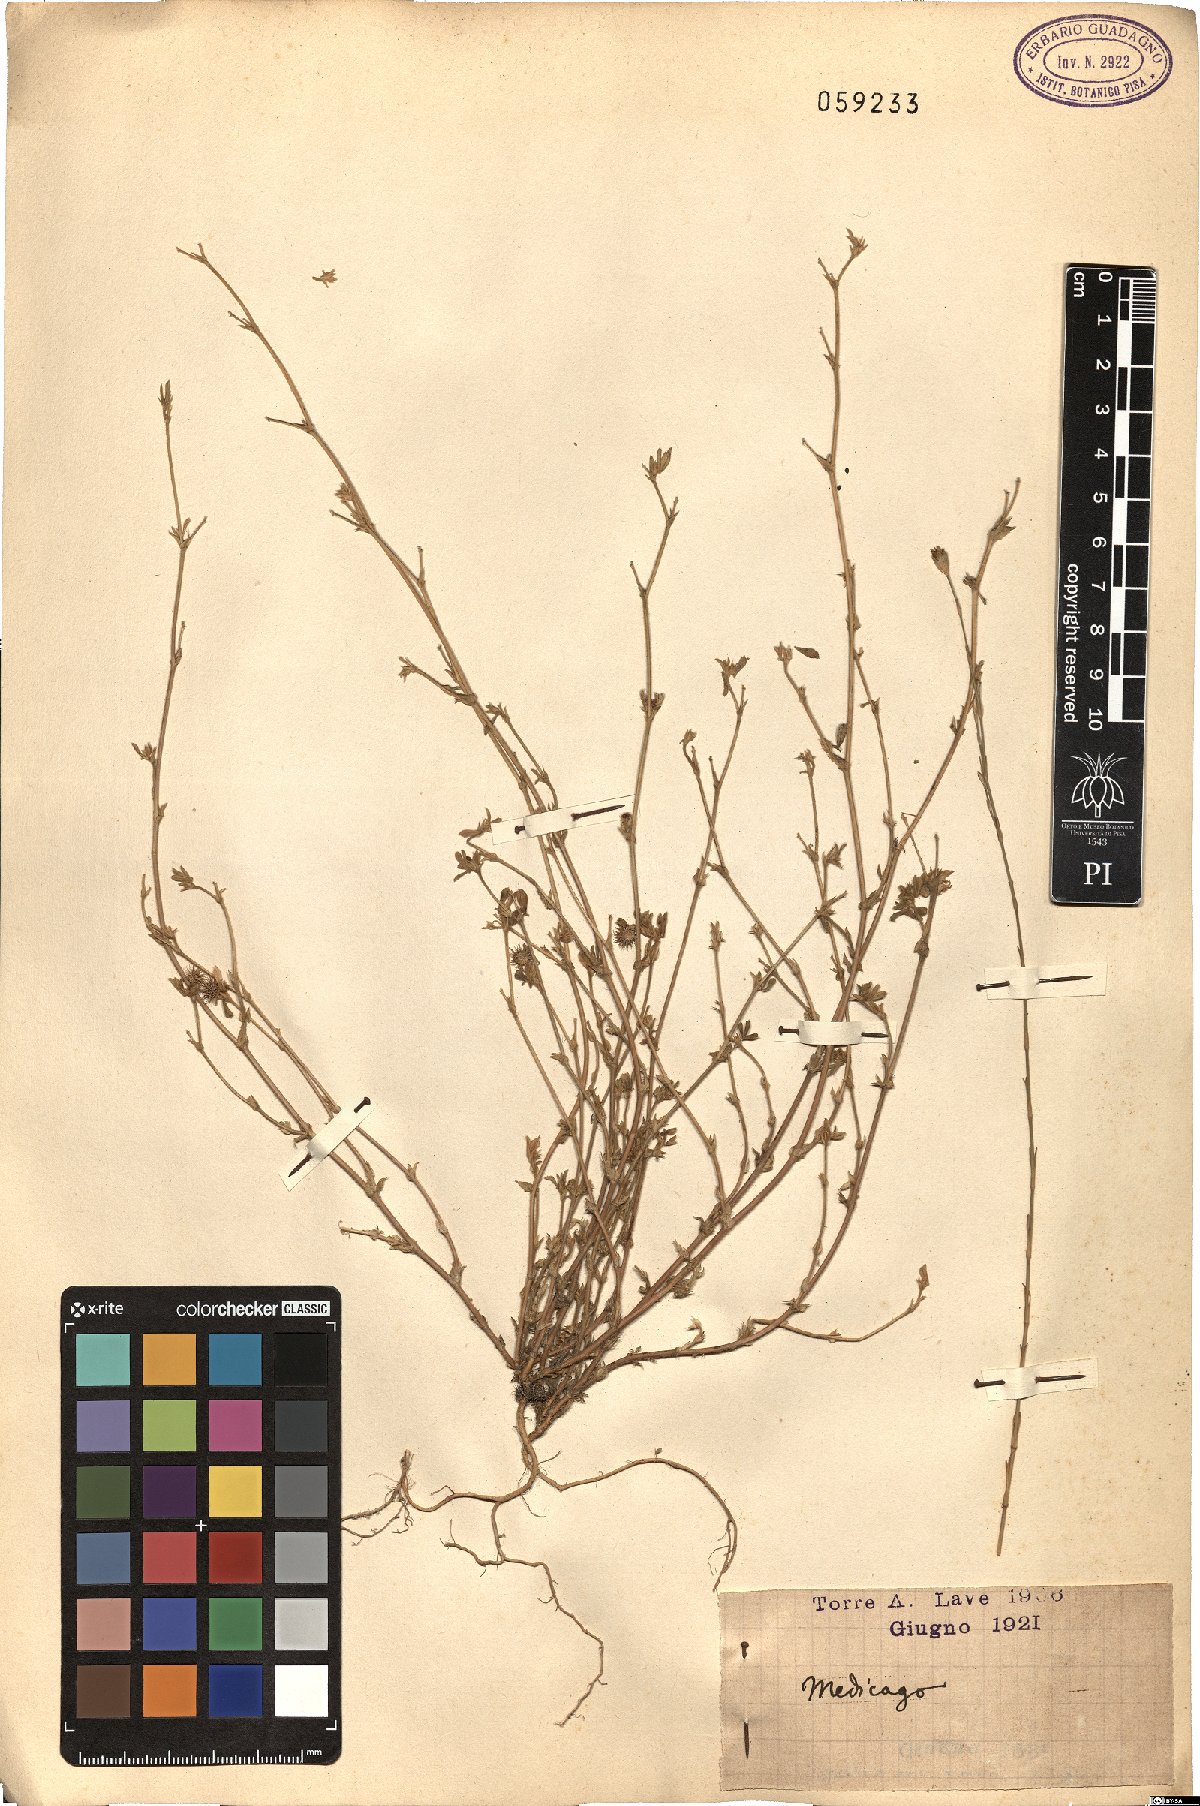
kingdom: Plantae
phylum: Tracheophyta
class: Magnoliopsida
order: Fabales
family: Fabaceae
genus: Medicago
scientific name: Medicago
